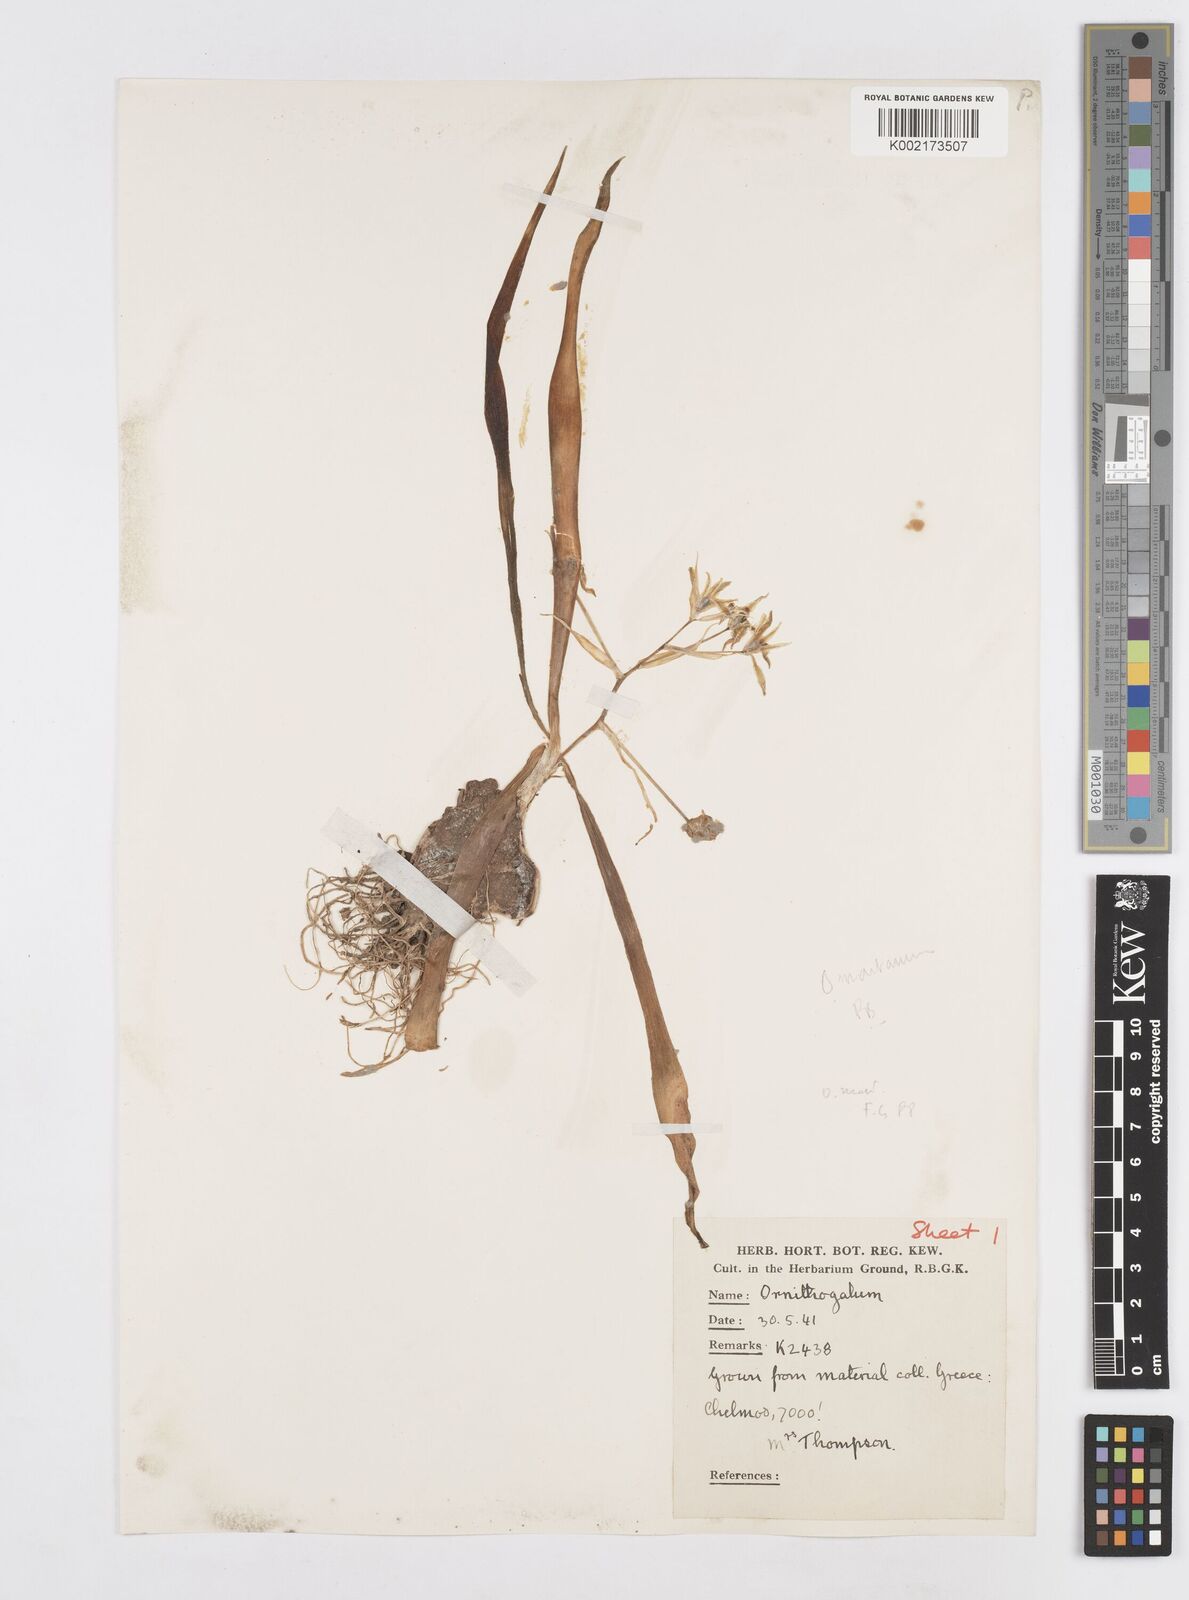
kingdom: Plantae
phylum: Tracheophyta
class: Liliopsida
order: Asparagales
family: Asparagaceae
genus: Ornithogalum
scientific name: Ornithogalum montanum
